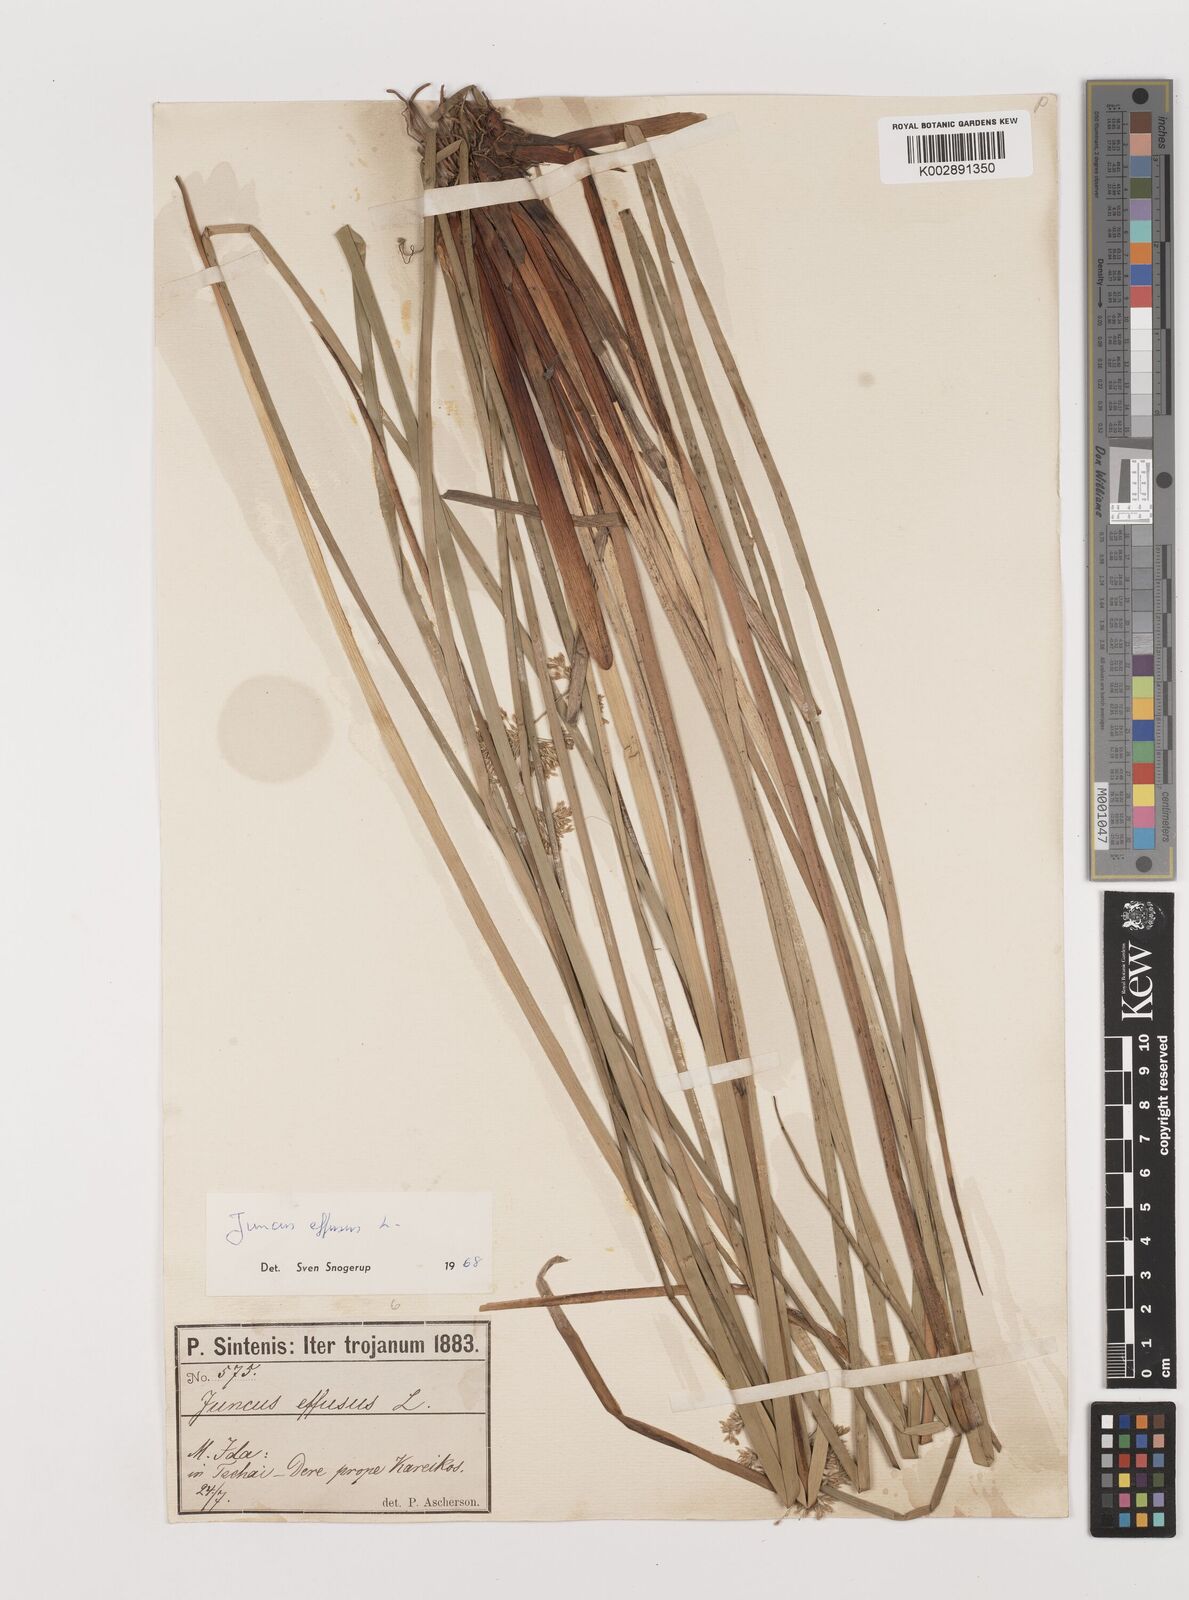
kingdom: Plantae
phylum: Tracheophyta
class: Liliopsida
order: Poales
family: Juncaceae
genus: Juncus
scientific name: Juncus effusus
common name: Soft rush
